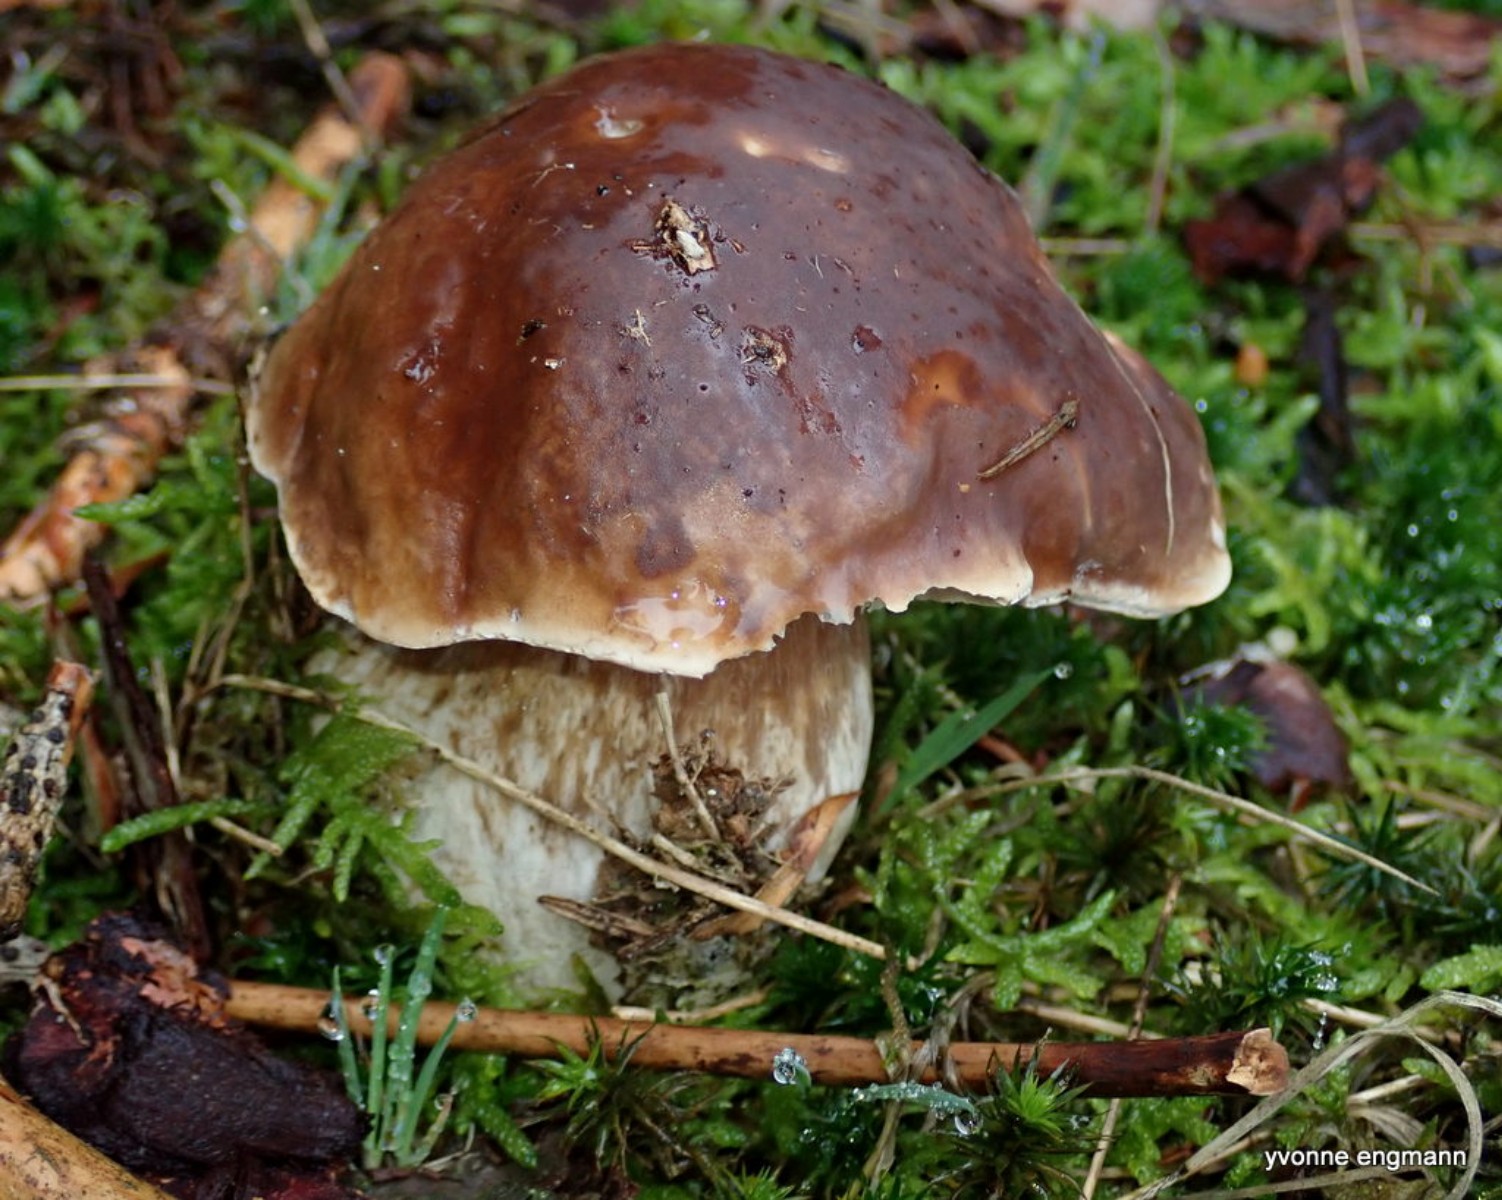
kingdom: Fungi
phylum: Basidiomycota
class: Agaricomycetes
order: Boletales
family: Boletaceae
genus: Boletus
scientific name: Boletus edulis
